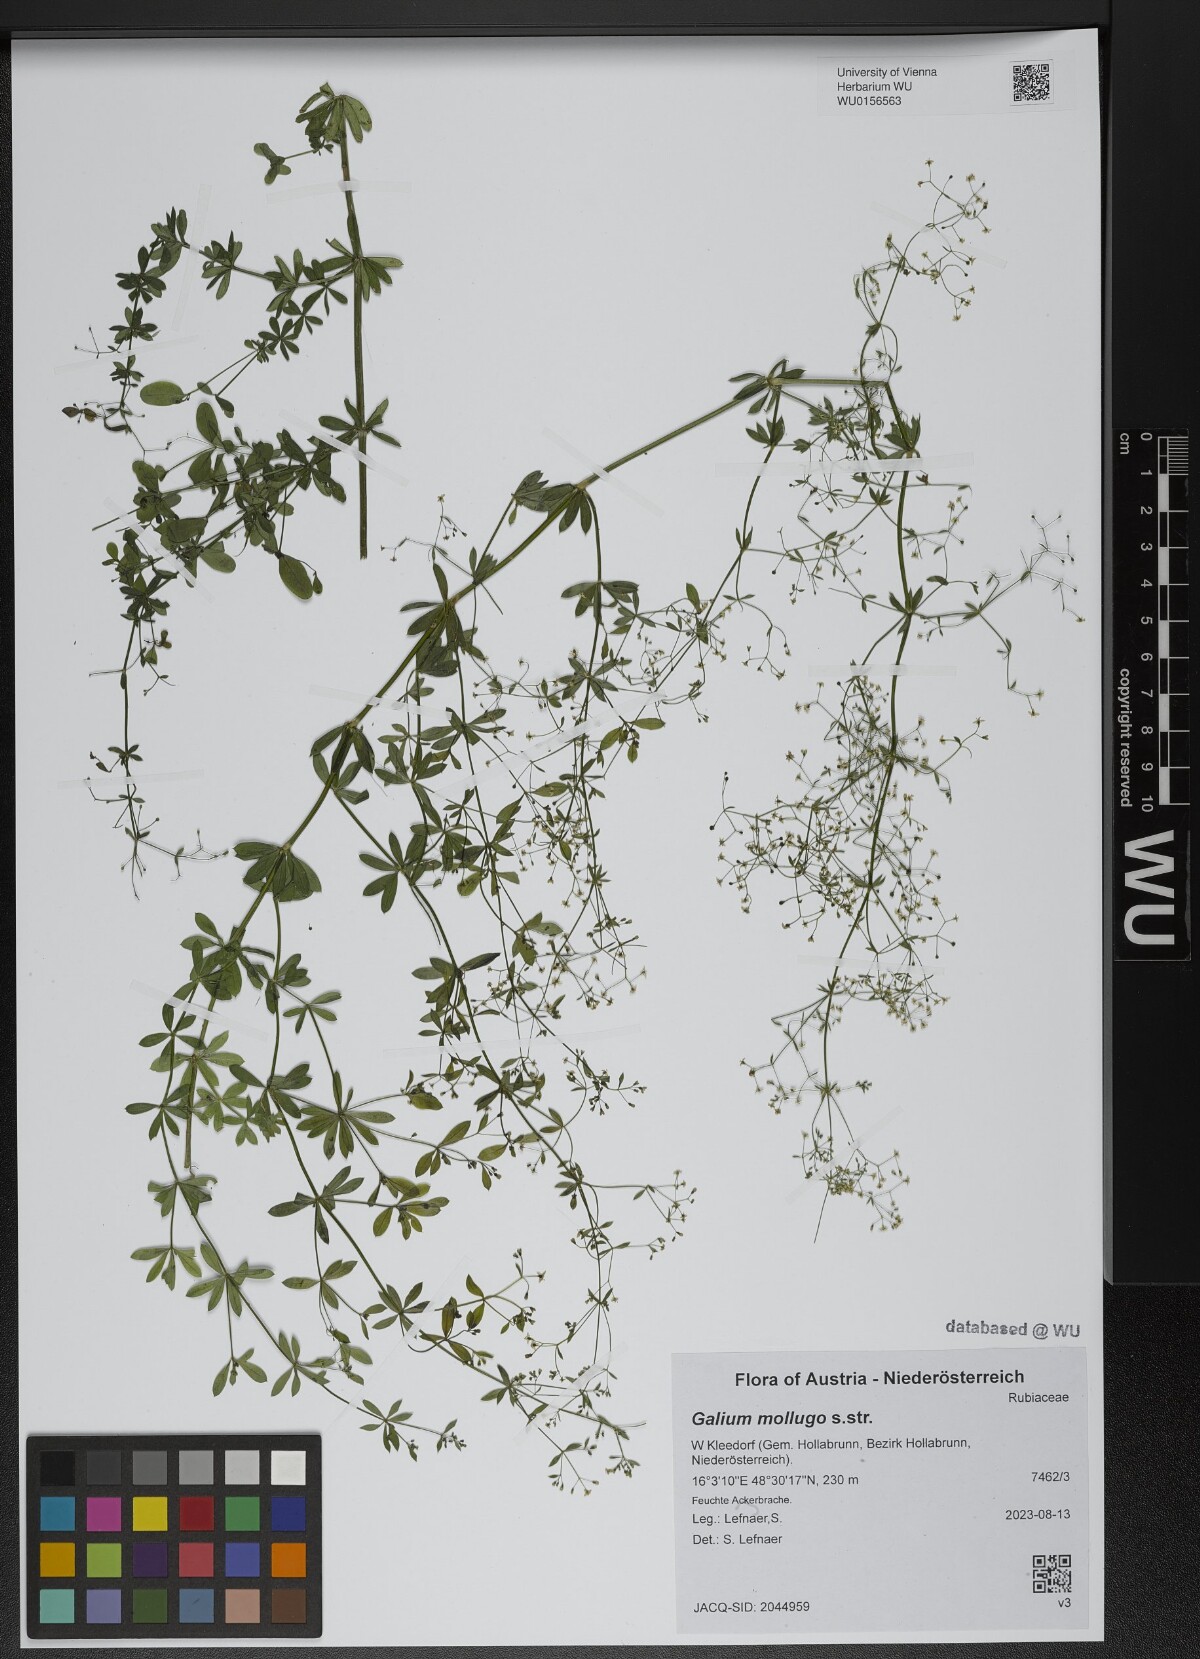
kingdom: Plantae
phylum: Tracheophyta
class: Magnoliopsida
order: Gentianales
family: Rubiaceae
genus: Galium
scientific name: Galium mollugo
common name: Hedge bedstraw
